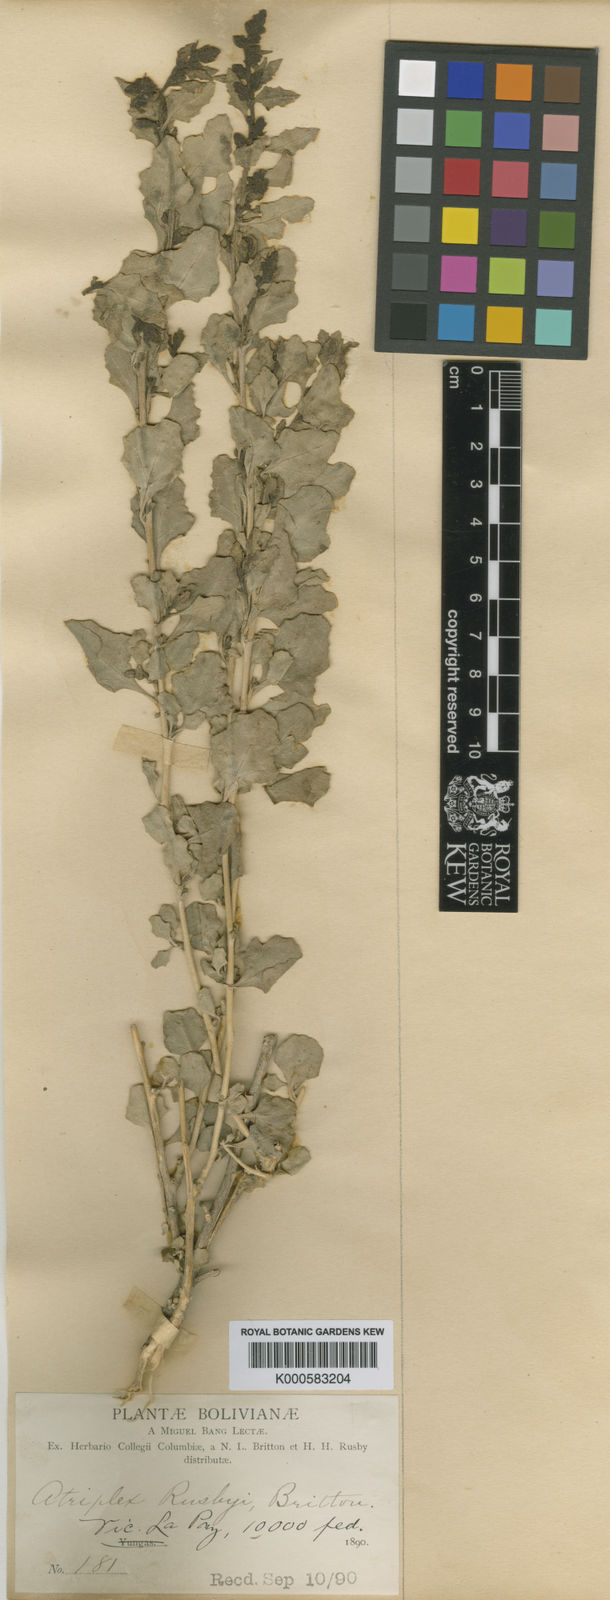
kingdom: Plantae
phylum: Tracheophyta
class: Magnoliopsida
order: Caryophyllales
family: Amaranthaceae
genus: Atriplex
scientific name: Atriplex
